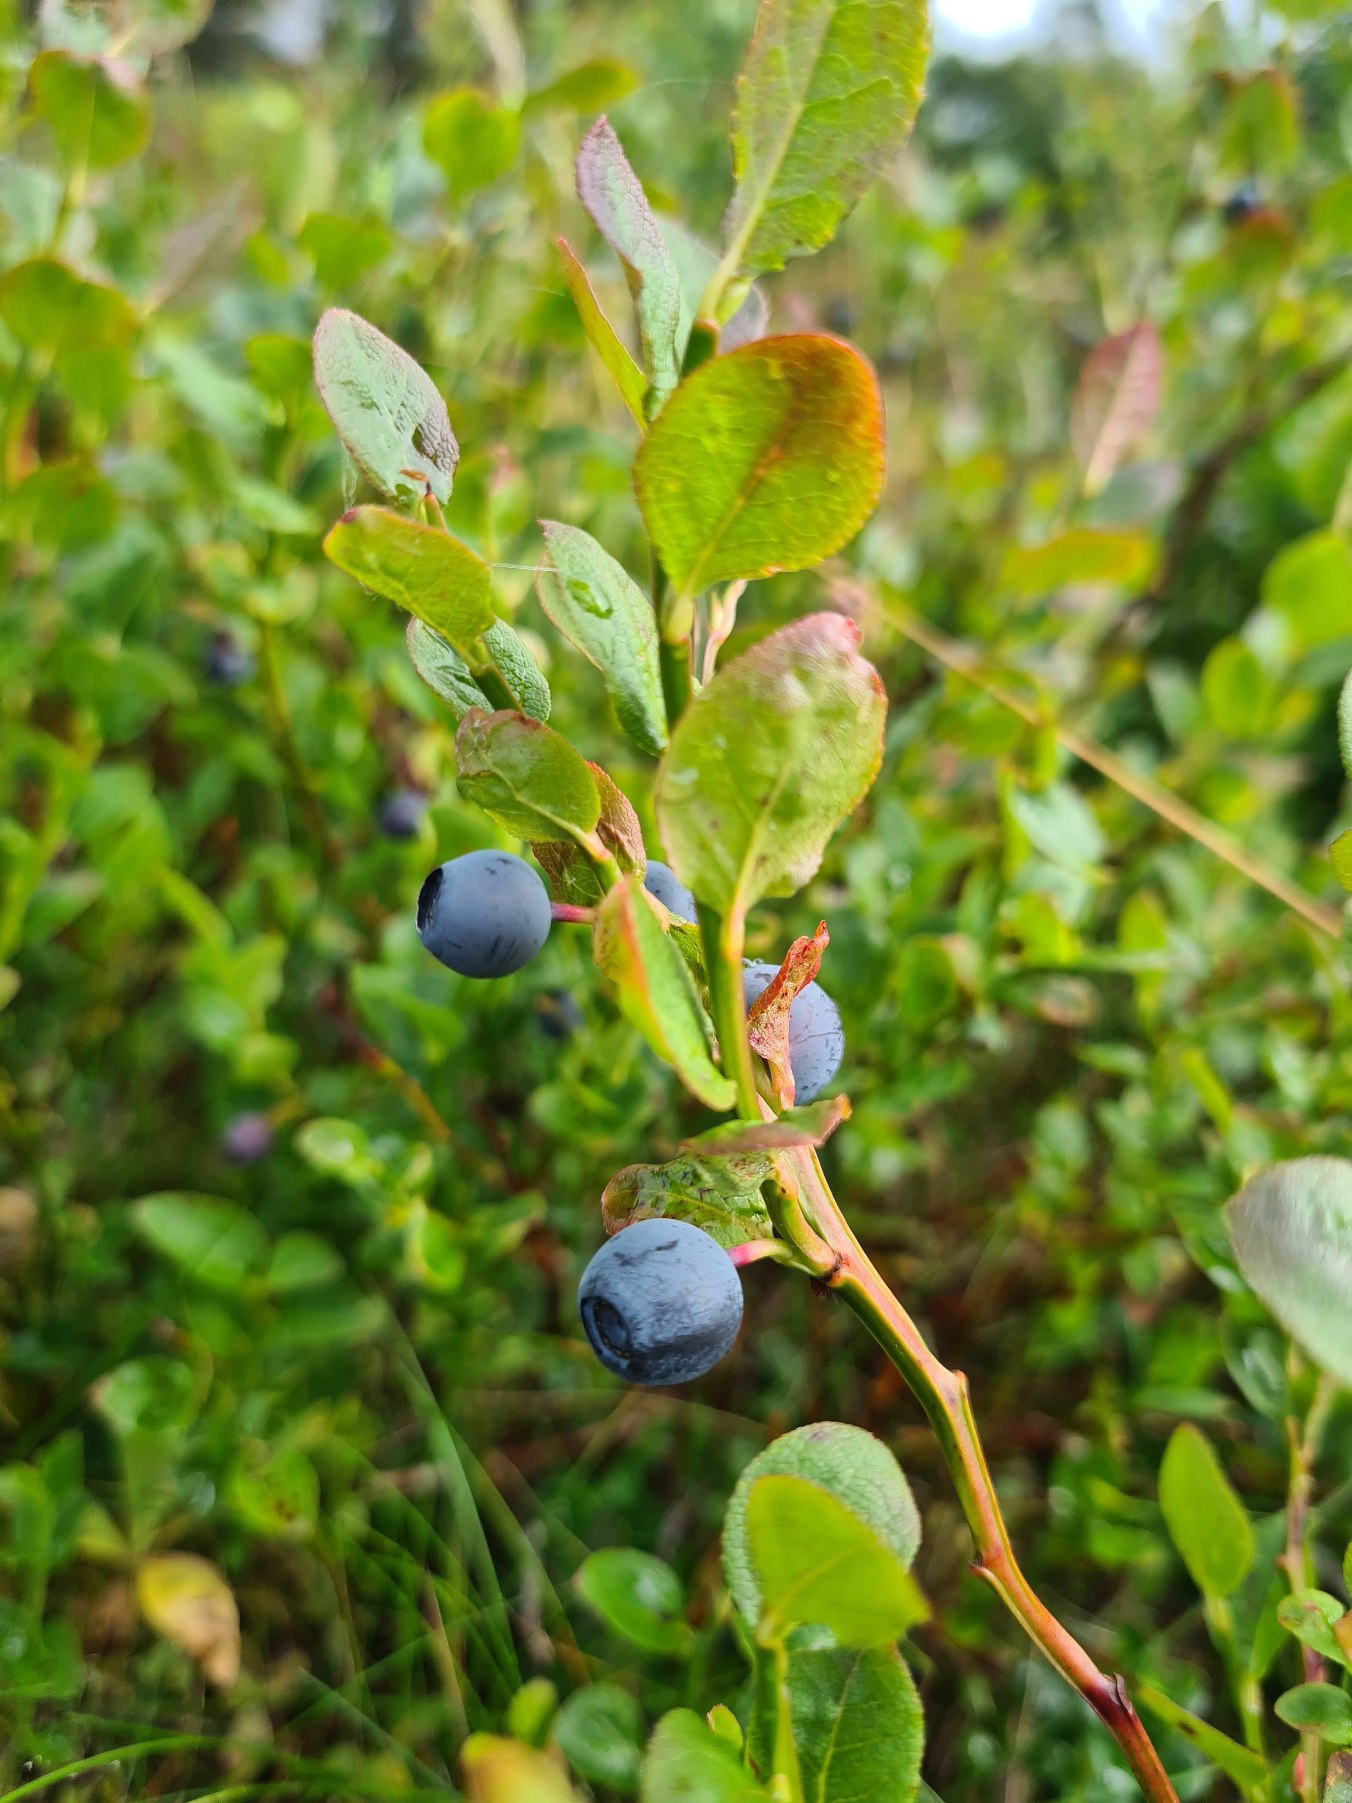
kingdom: Plantae
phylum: Tracheophyta
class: Magnoliopsida
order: Ericales
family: Ericaceae
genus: Vaccinium
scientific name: Vaccinium myrtillus
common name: Blåbær
